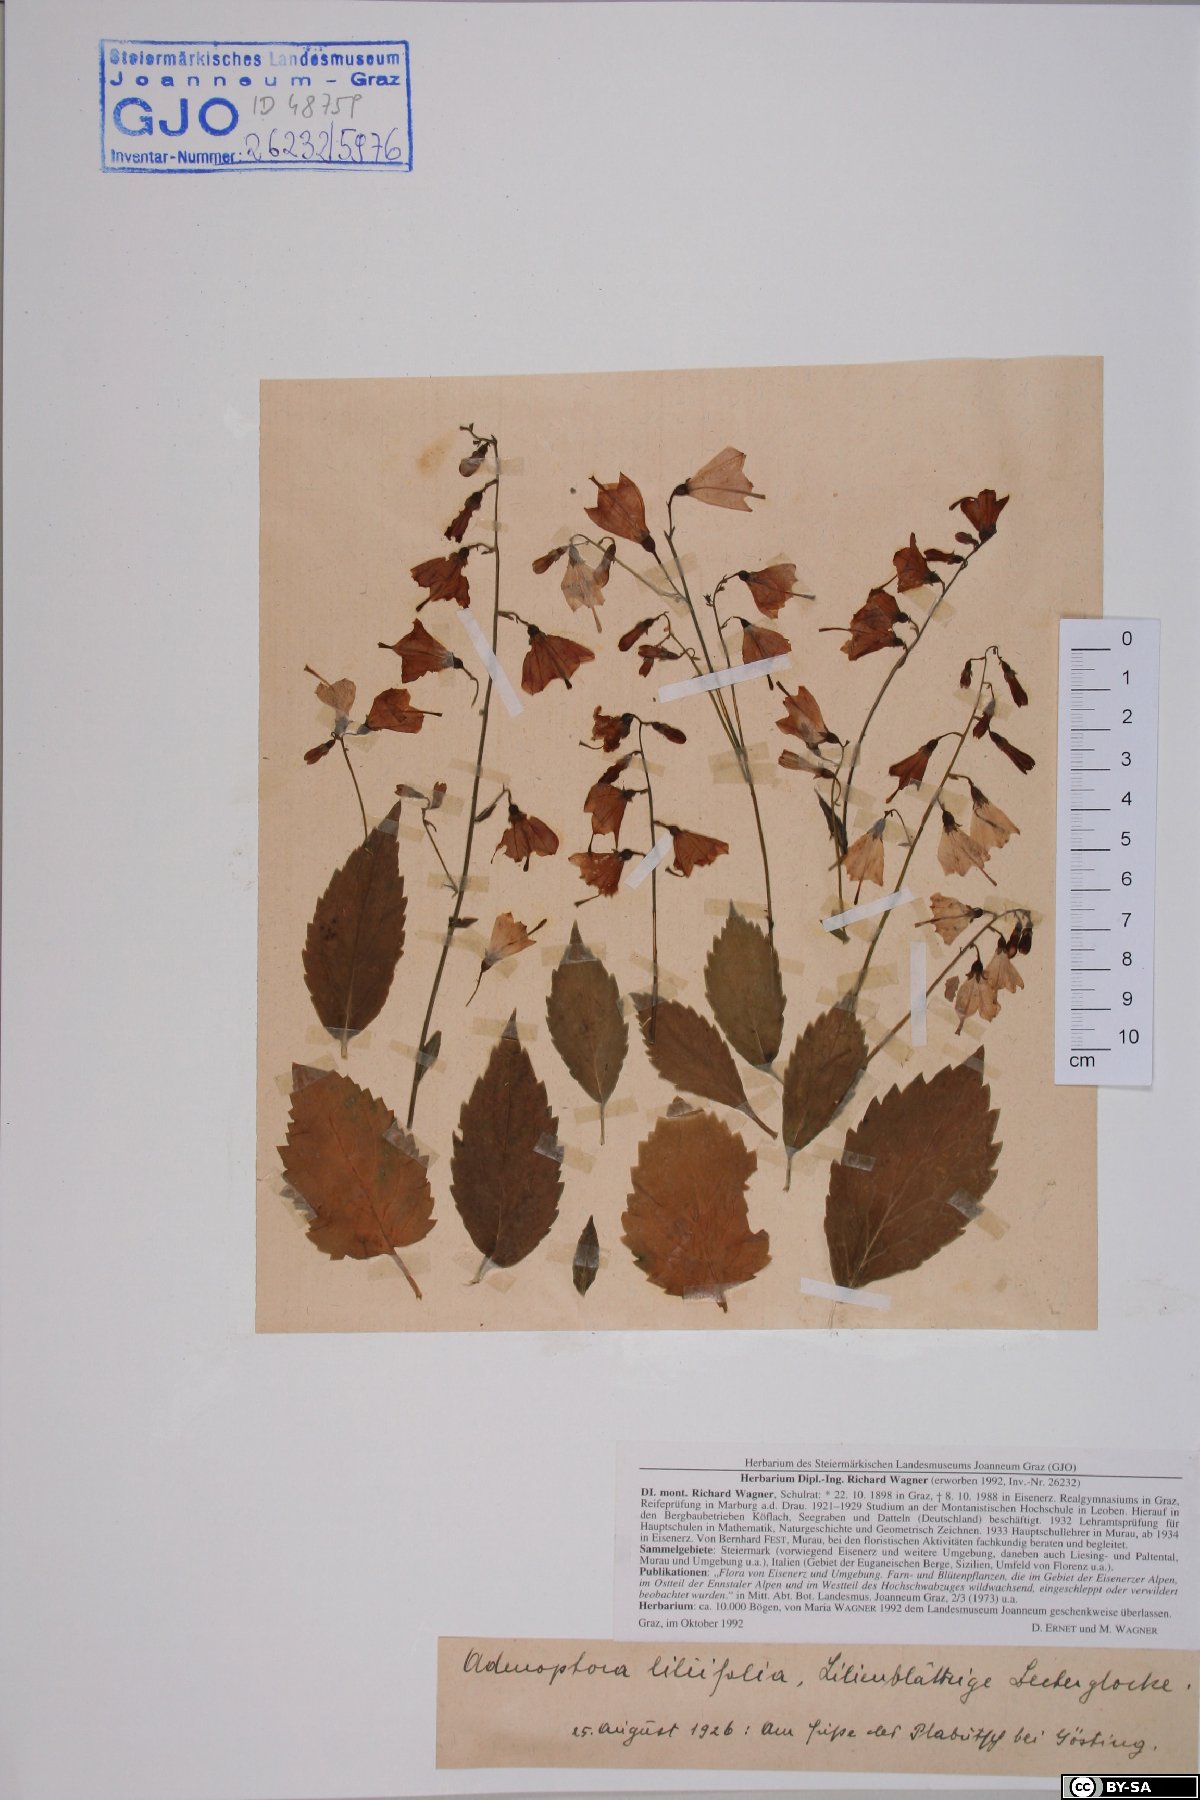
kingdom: Plantae
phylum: Tracheophyta
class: Magnoliopsida
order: Asterales
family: Campanulaceae
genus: Adenophora
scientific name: Adenophora liliifolia
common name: Lilyleaf ladybells
